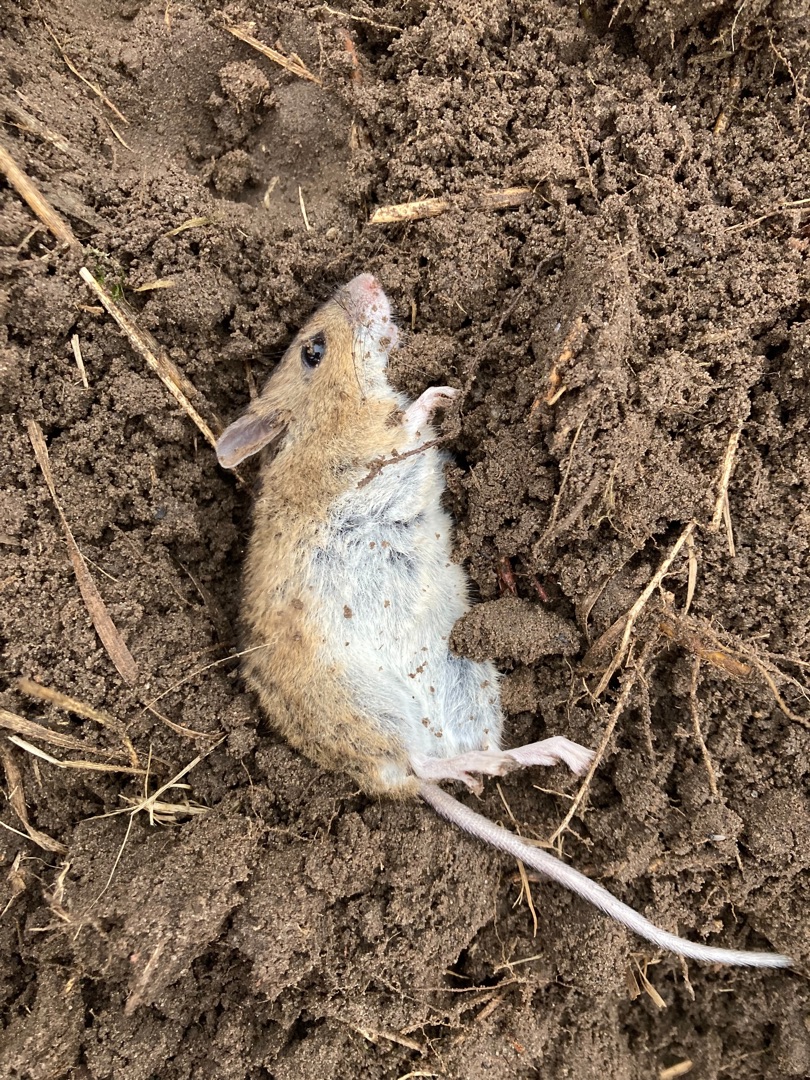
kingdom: Animalia
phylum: Chordata
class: Mammalia
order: Rodentia
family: Muridae
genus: Apodemus
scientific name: Apodemus sylvaticus
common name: Skovmus
